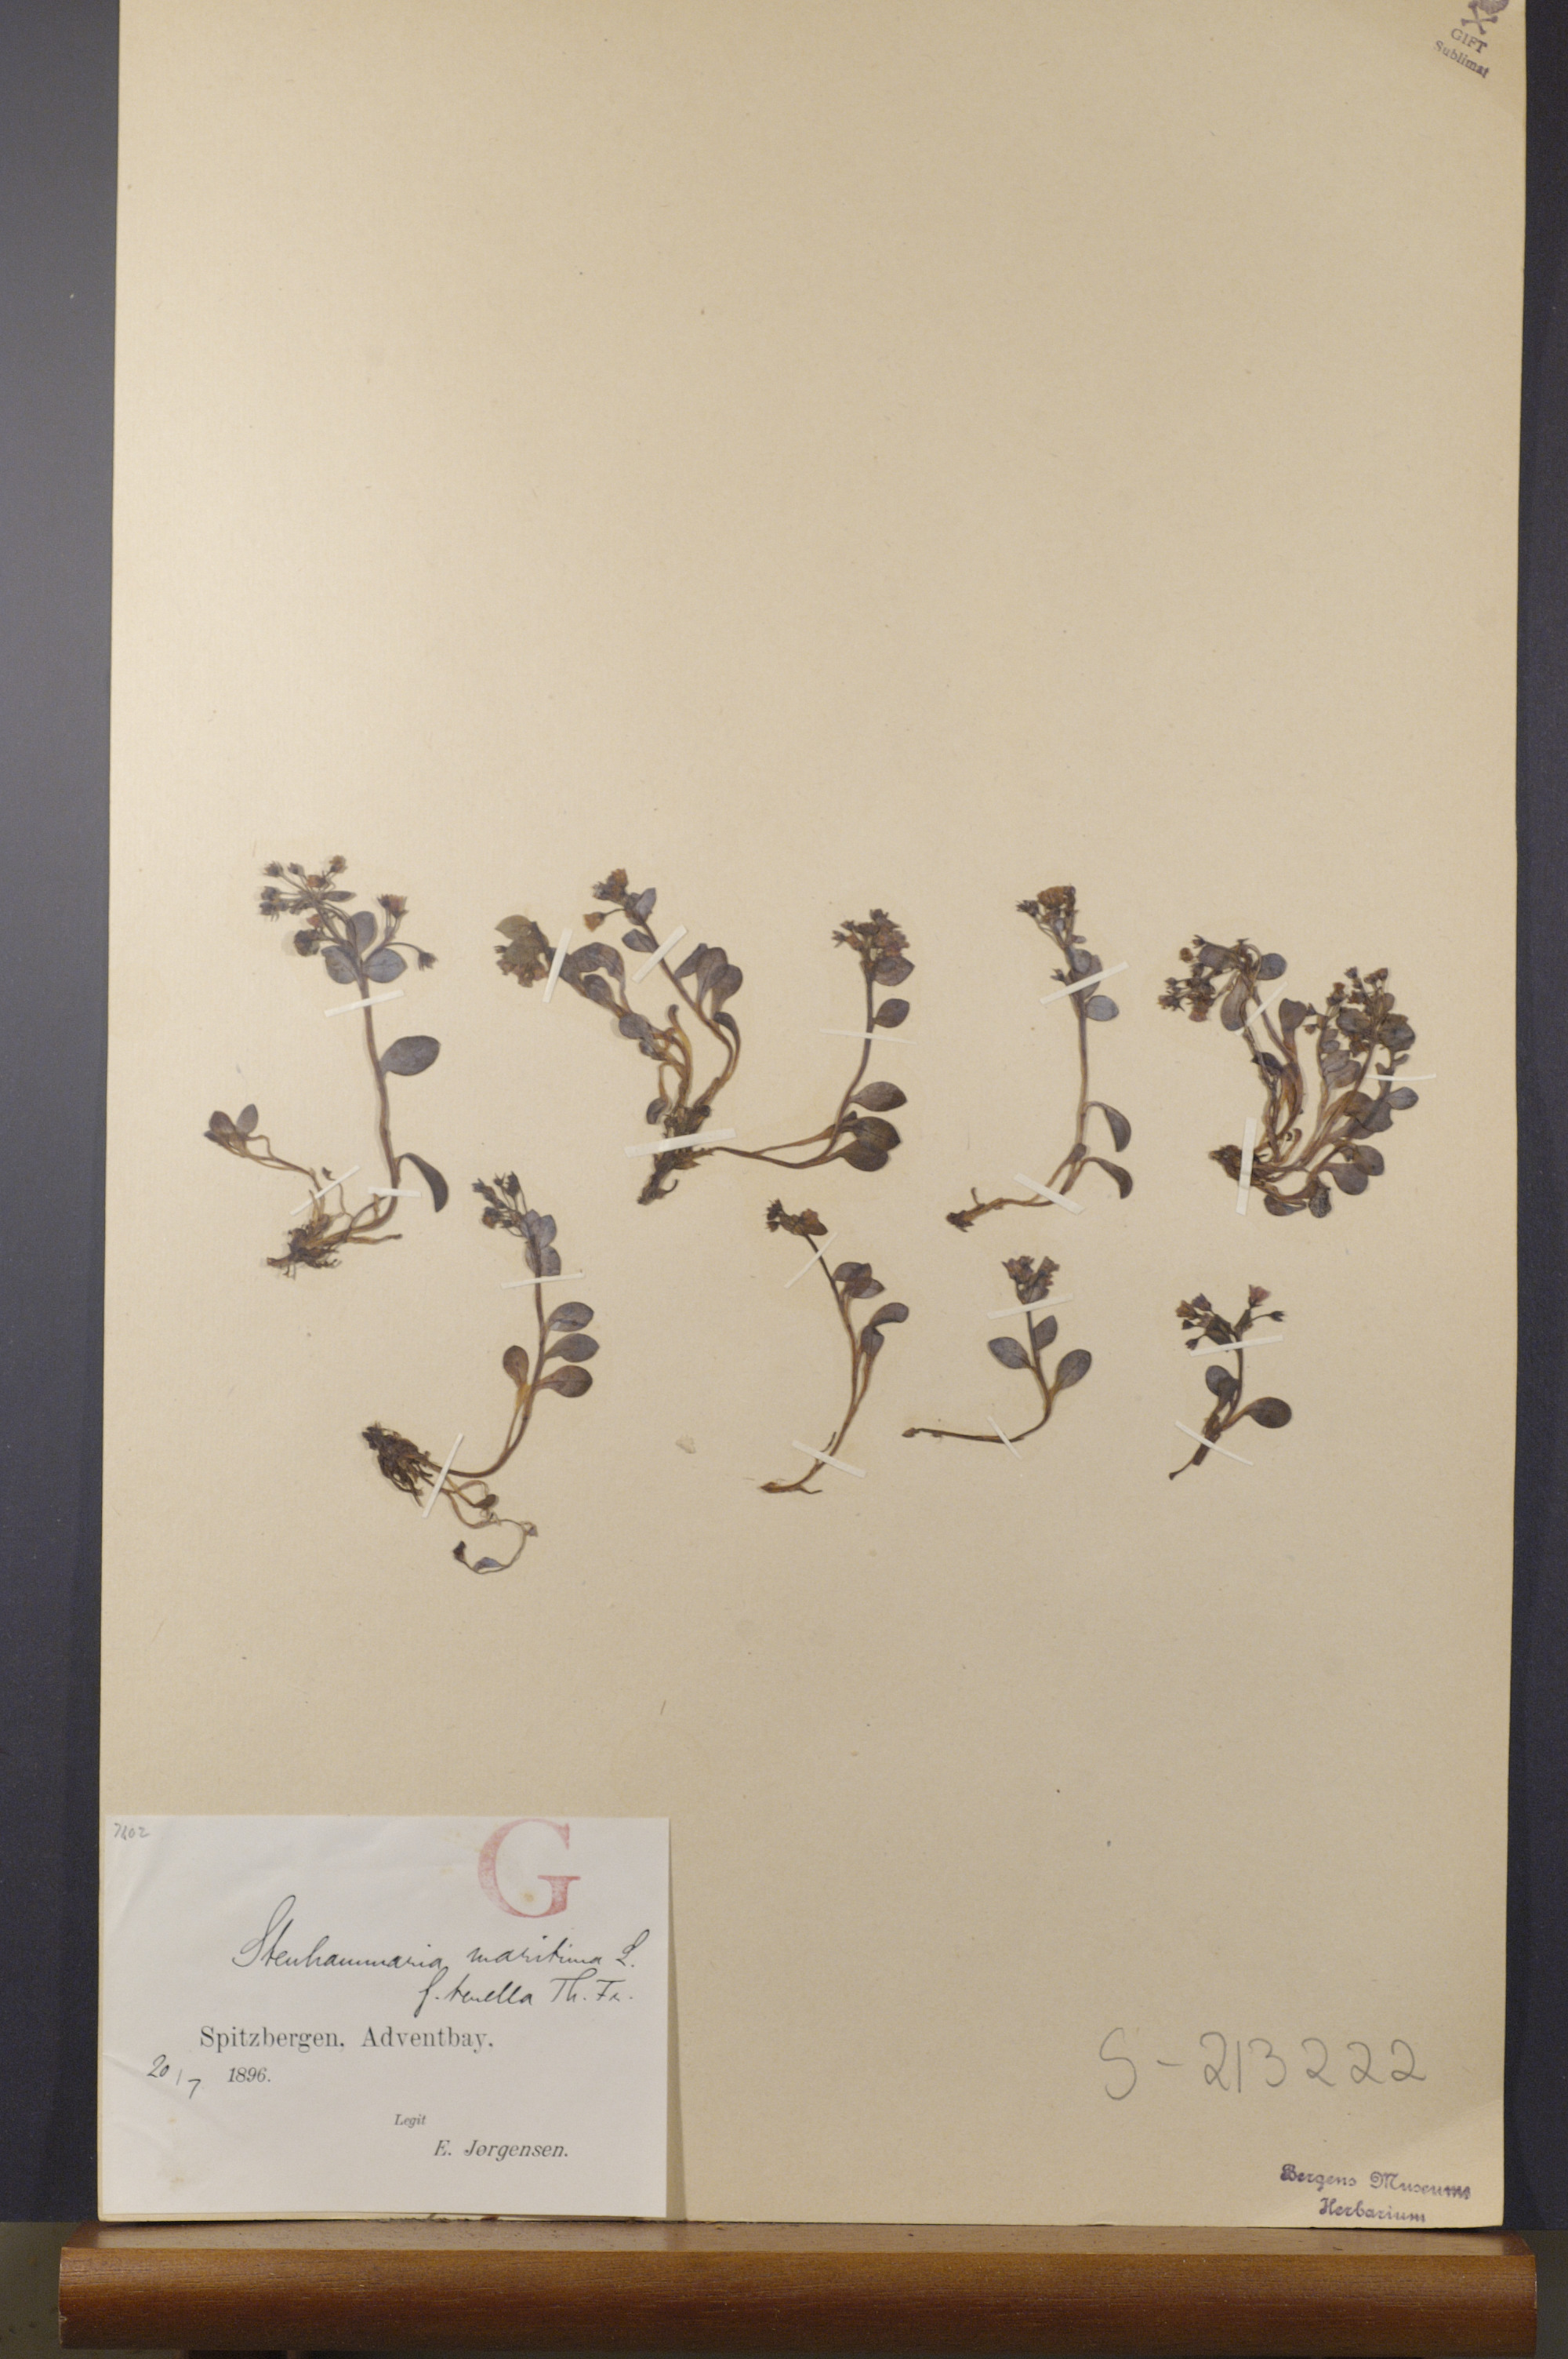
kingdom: Plantae
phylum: Tracheophyta
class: Magnoliopsida
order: Boraginales
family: Boraginaceae
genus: Mertensia
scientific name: Mertensia maritima
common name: Oysterplant
